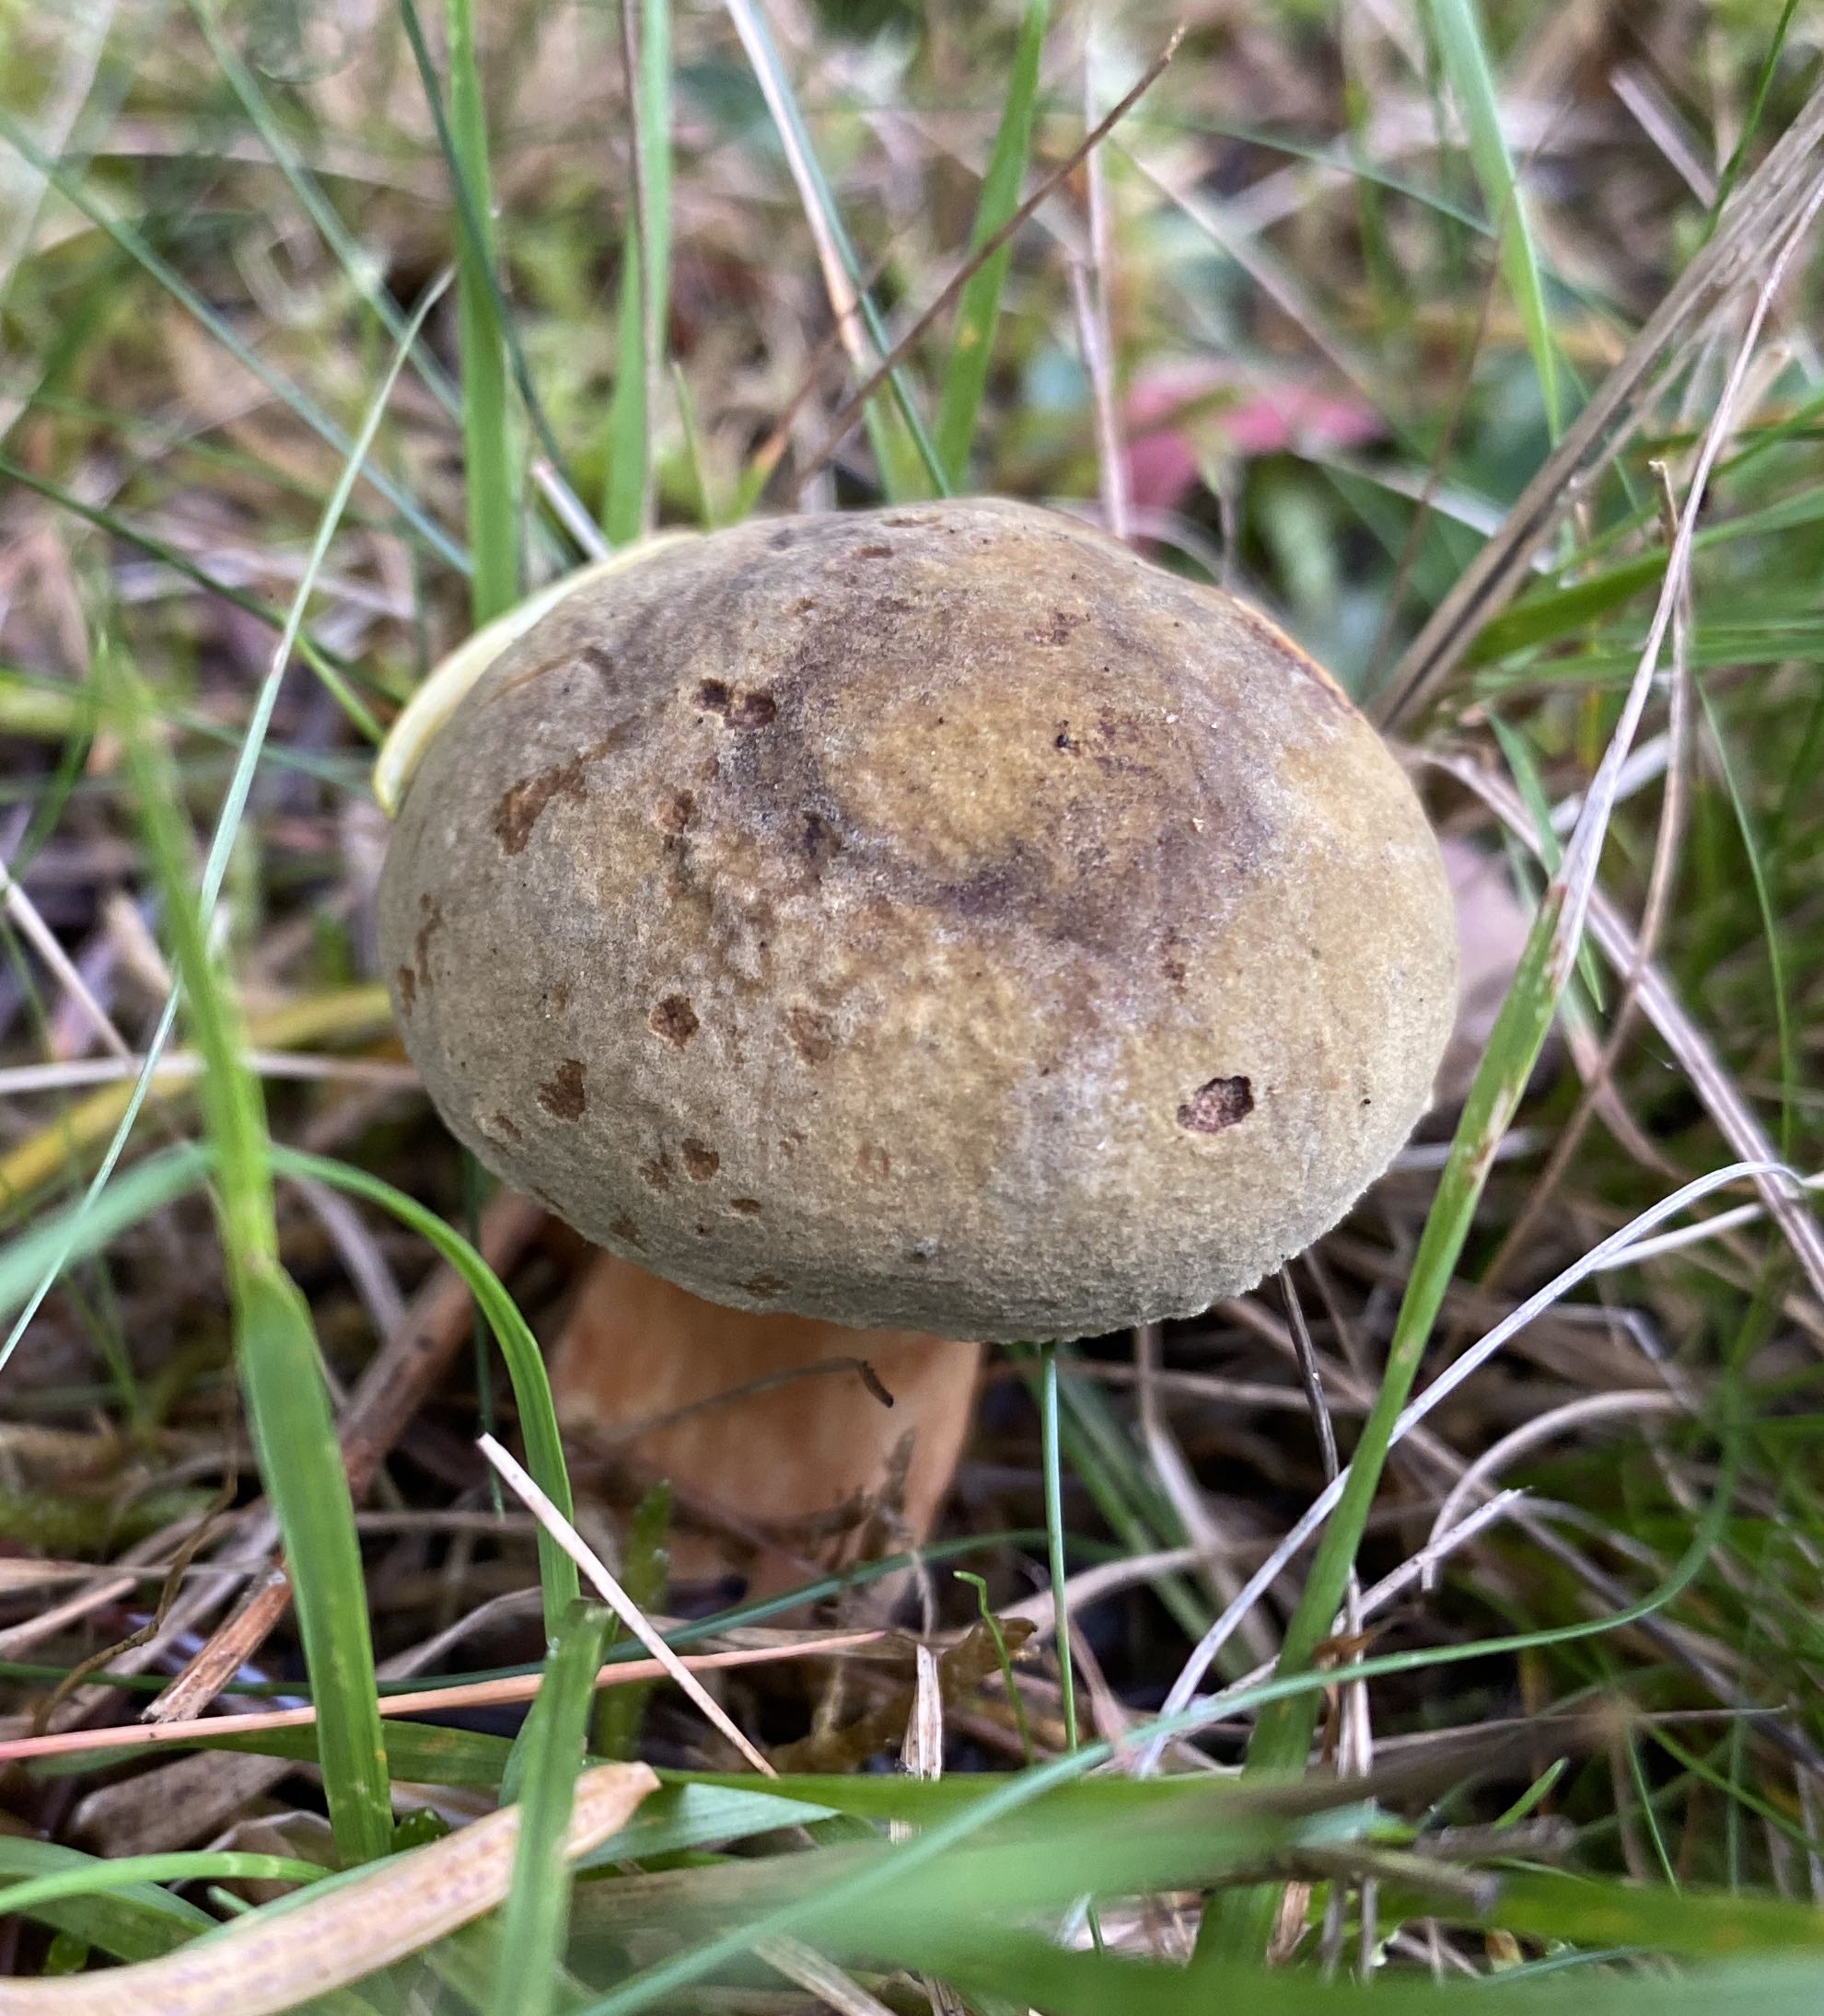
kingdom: Fungi
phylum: Basidiomycota
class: Agaricomycetes
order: Boletales
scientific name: Boletales
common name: rørhatordenen
